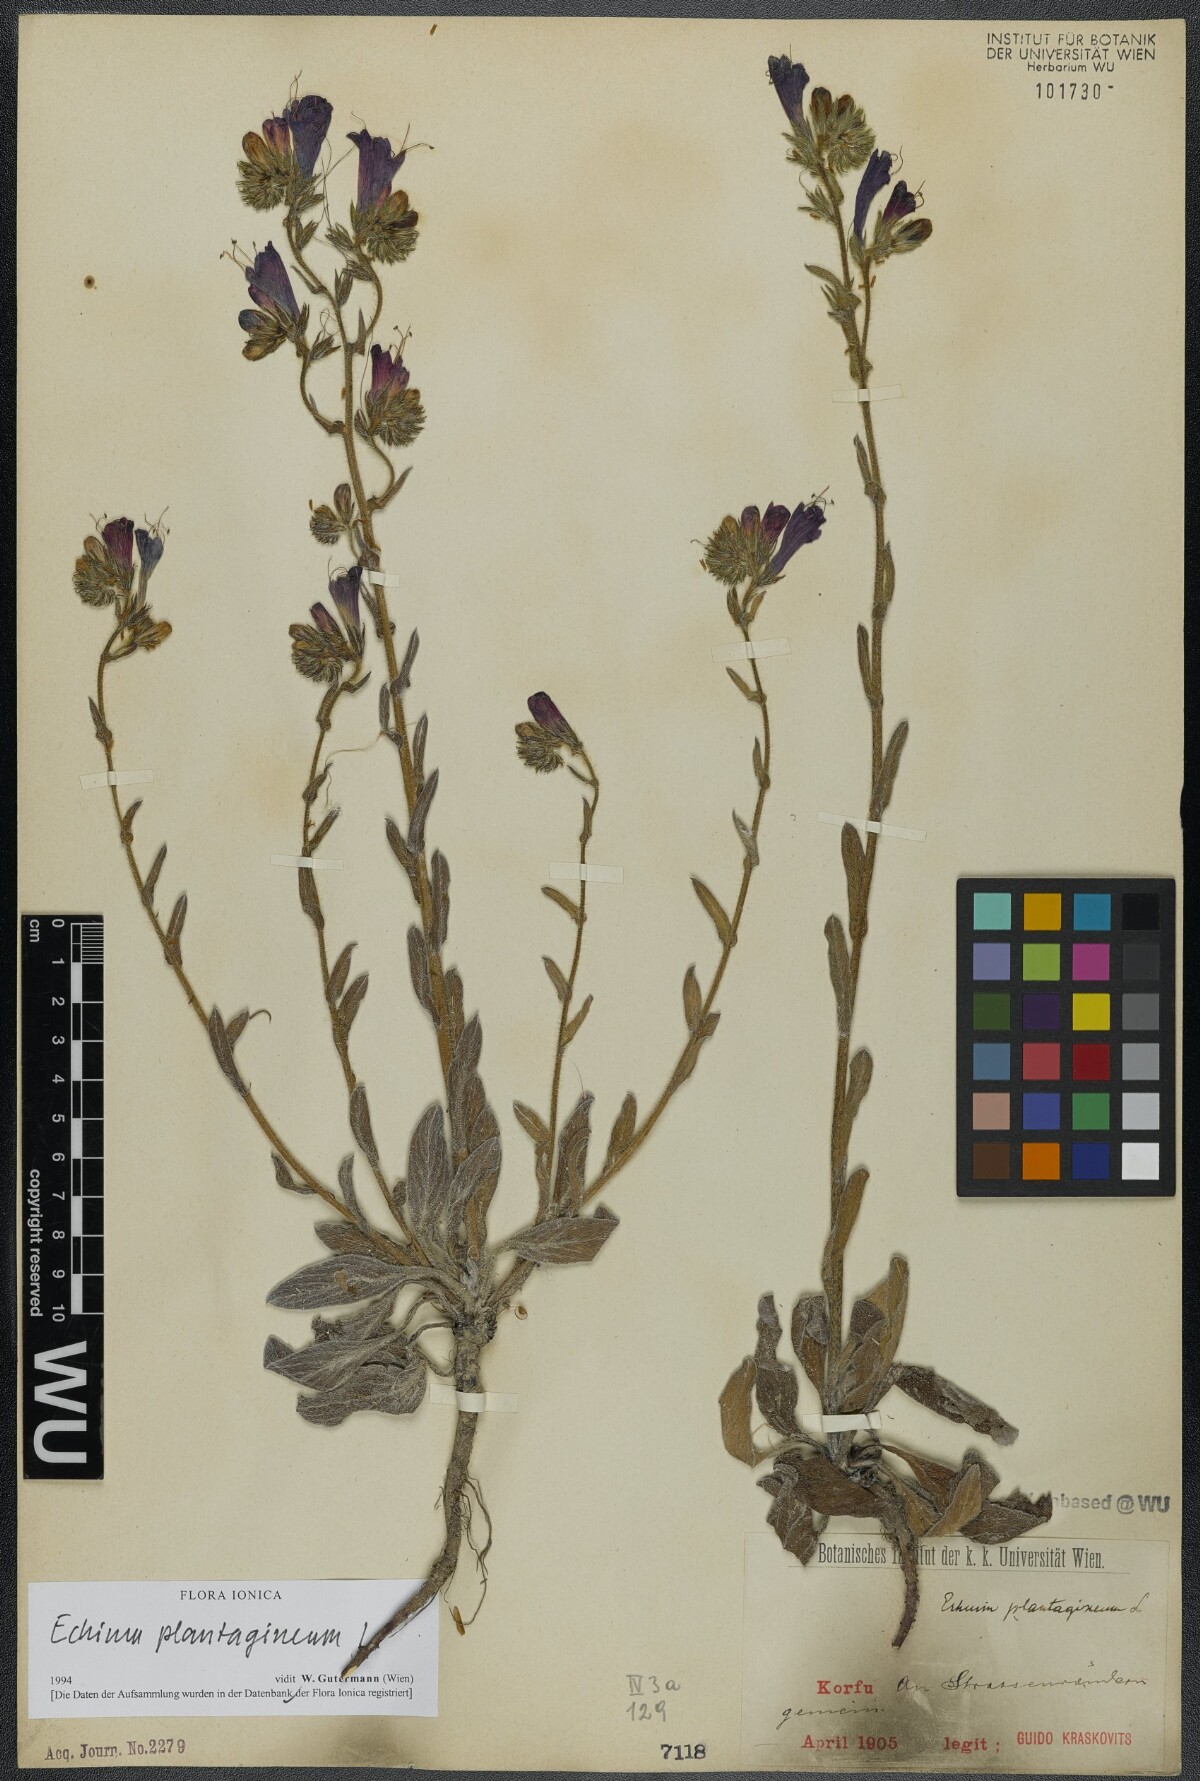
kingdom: Plantae
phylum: Tracheophyta
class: Magnoliopsida
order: Boraginales
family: Boraginaceae
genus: Echium
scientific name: Echium plantagineum
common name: Purple viper's-bugloss
